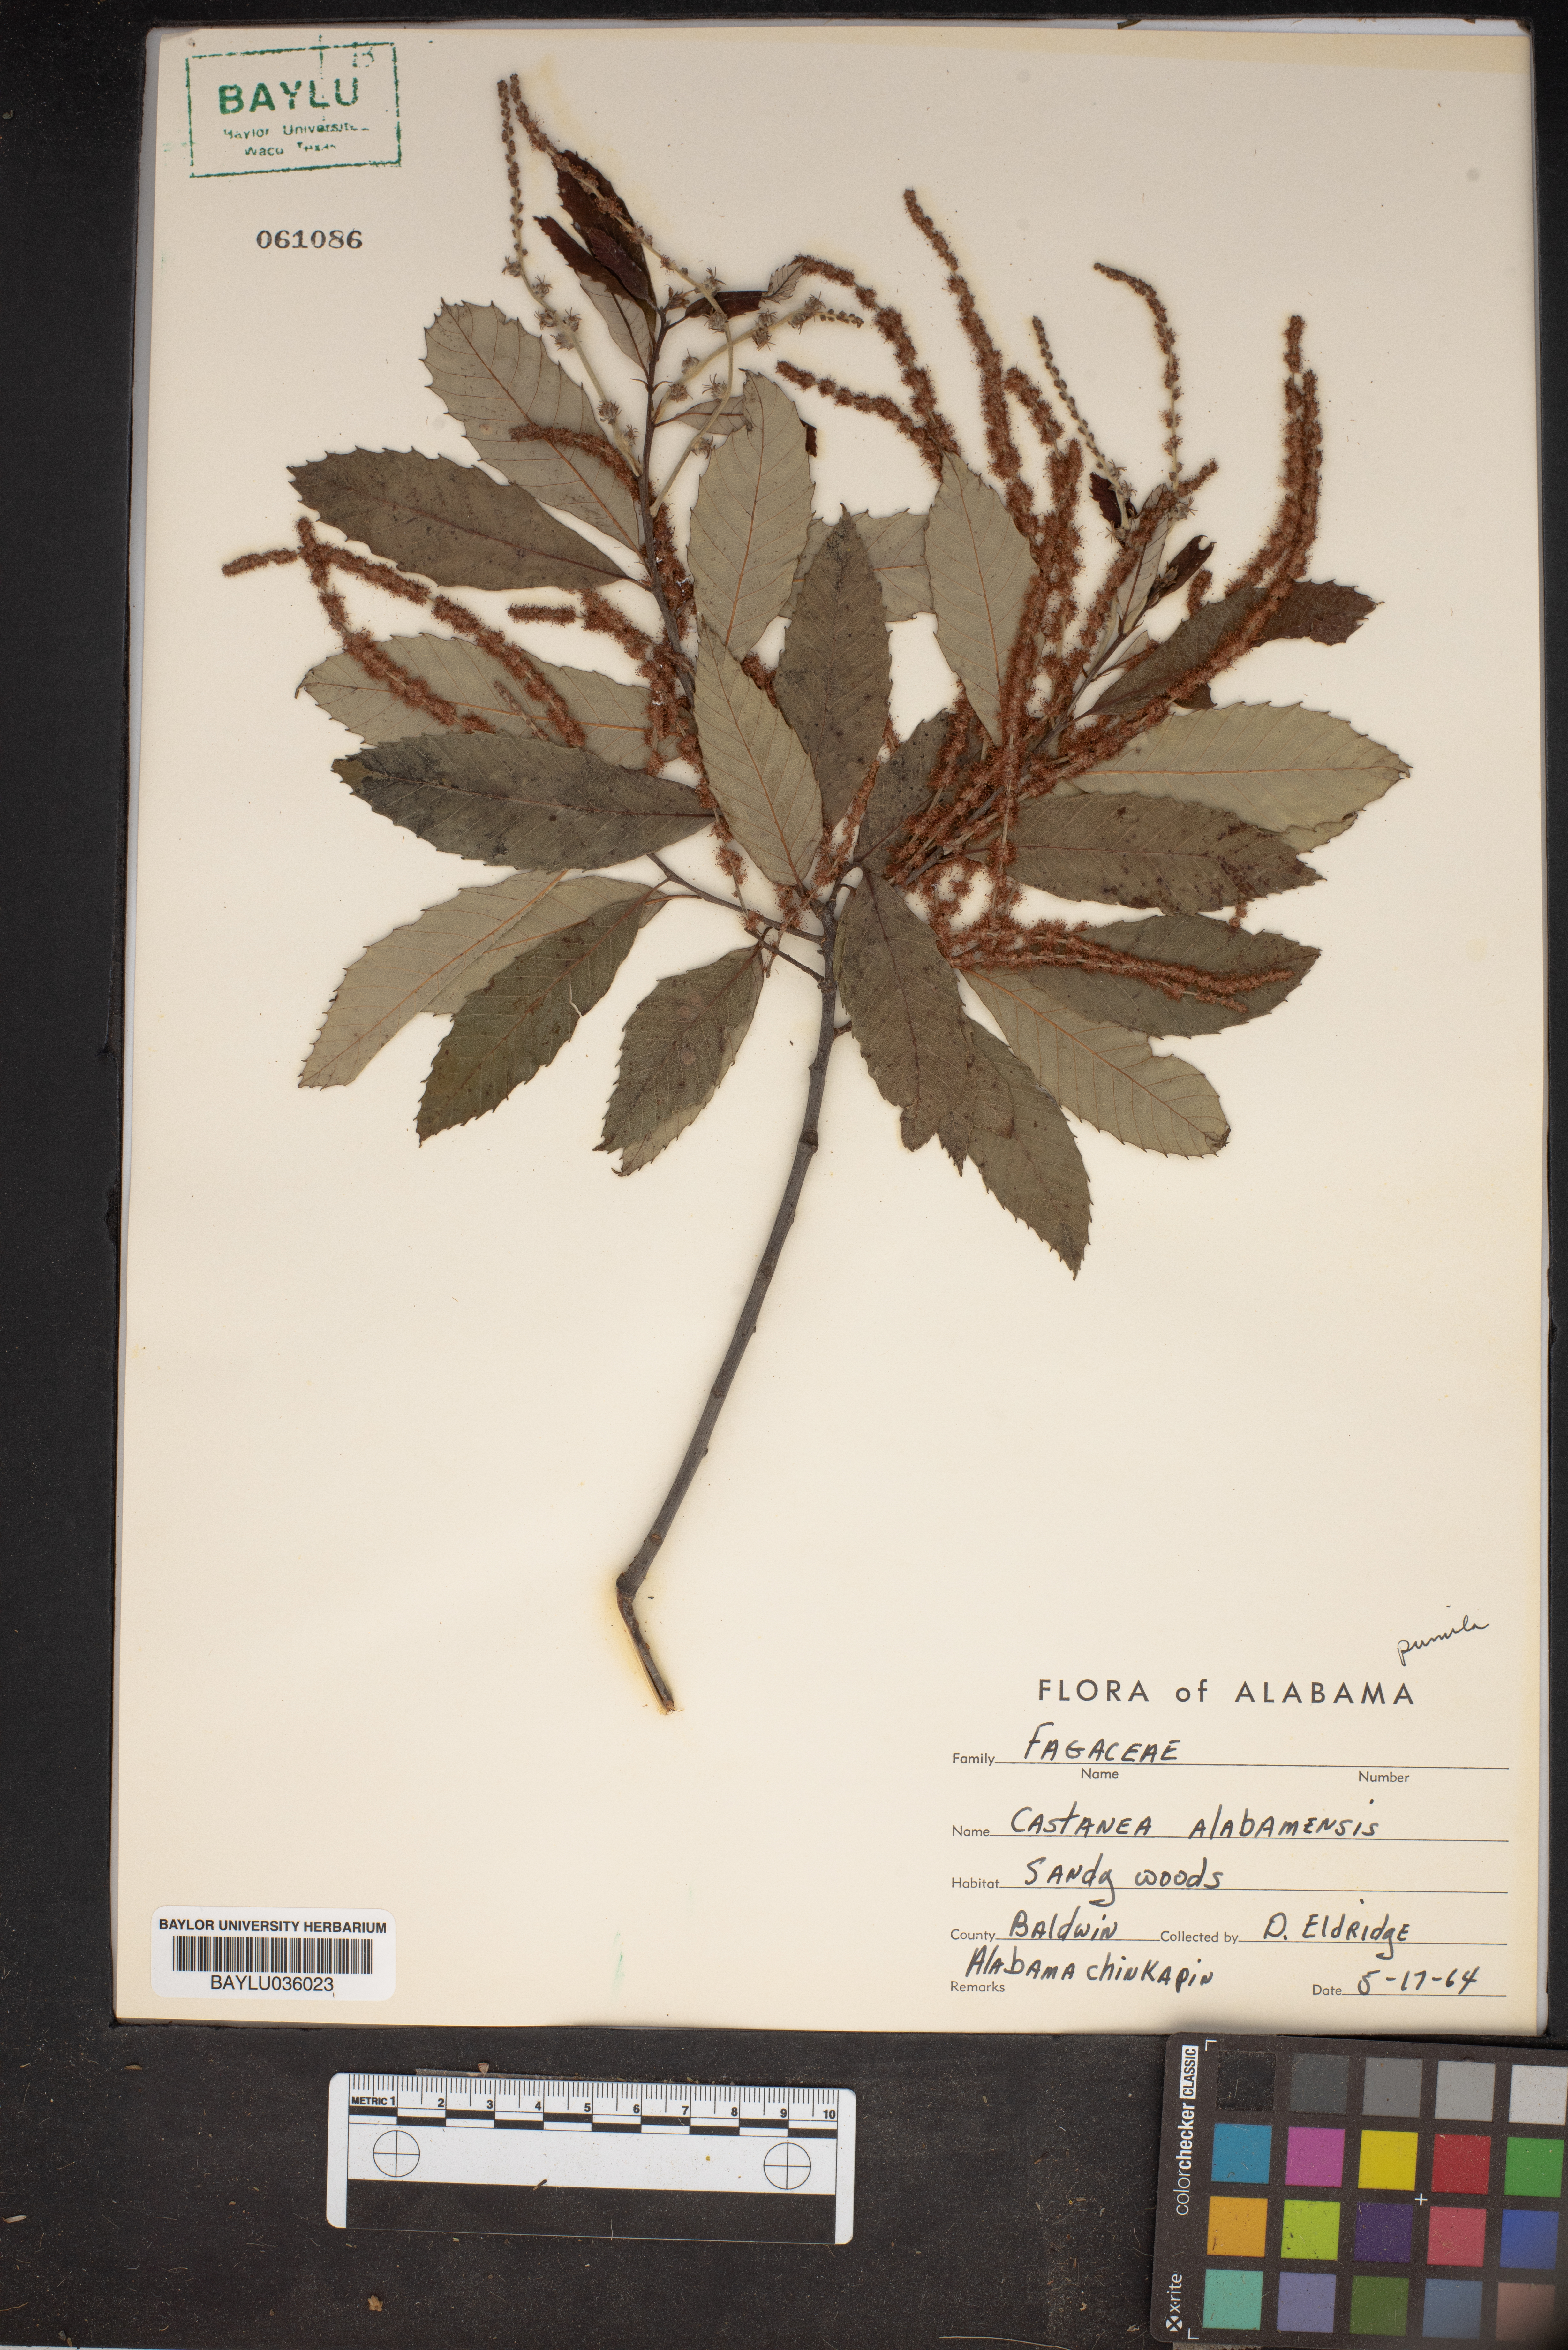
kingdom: Plantae
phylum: Tracheophyta
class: Magnoliopsida
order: Fagales
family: Fagaceae
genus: Castanea
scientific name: Castanea ozarkensis
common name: Ozark chinkapin
